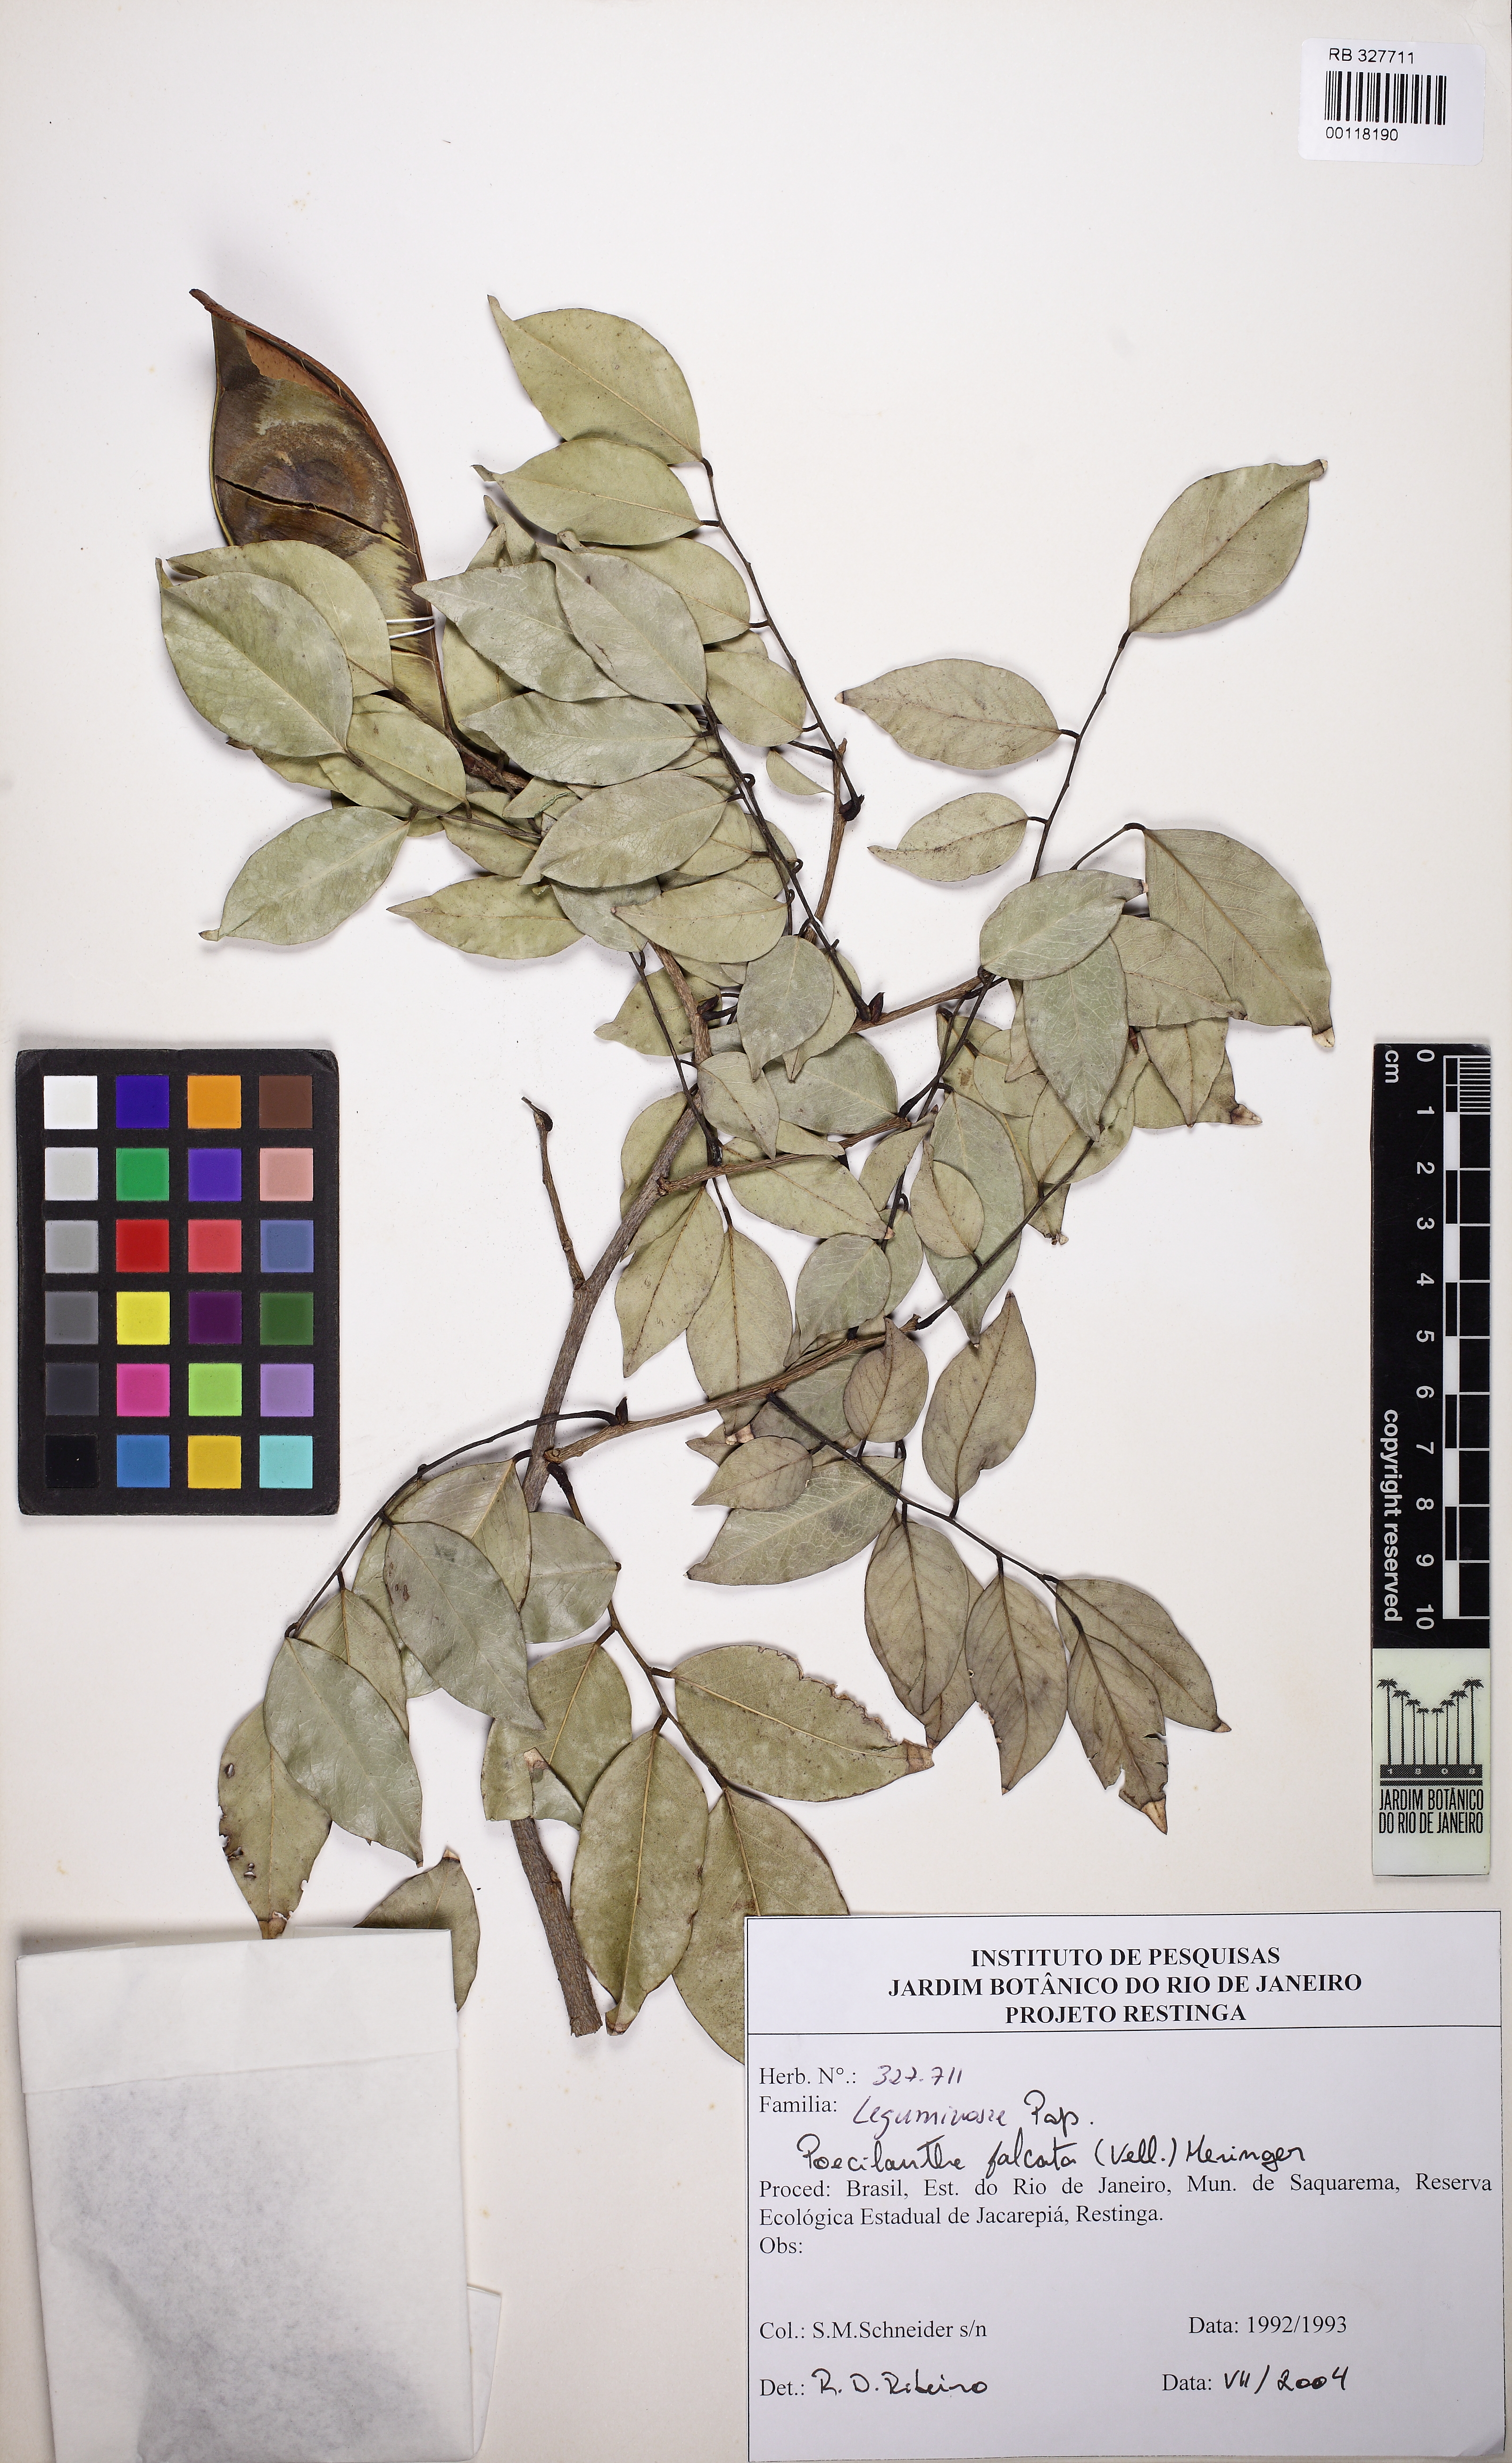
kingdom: Plantae
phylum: Tracheophyta
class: Magnoliopsida
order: Fabales
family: Fabaceae
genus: Poecilanthe
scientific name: Poecilanthe falcata
